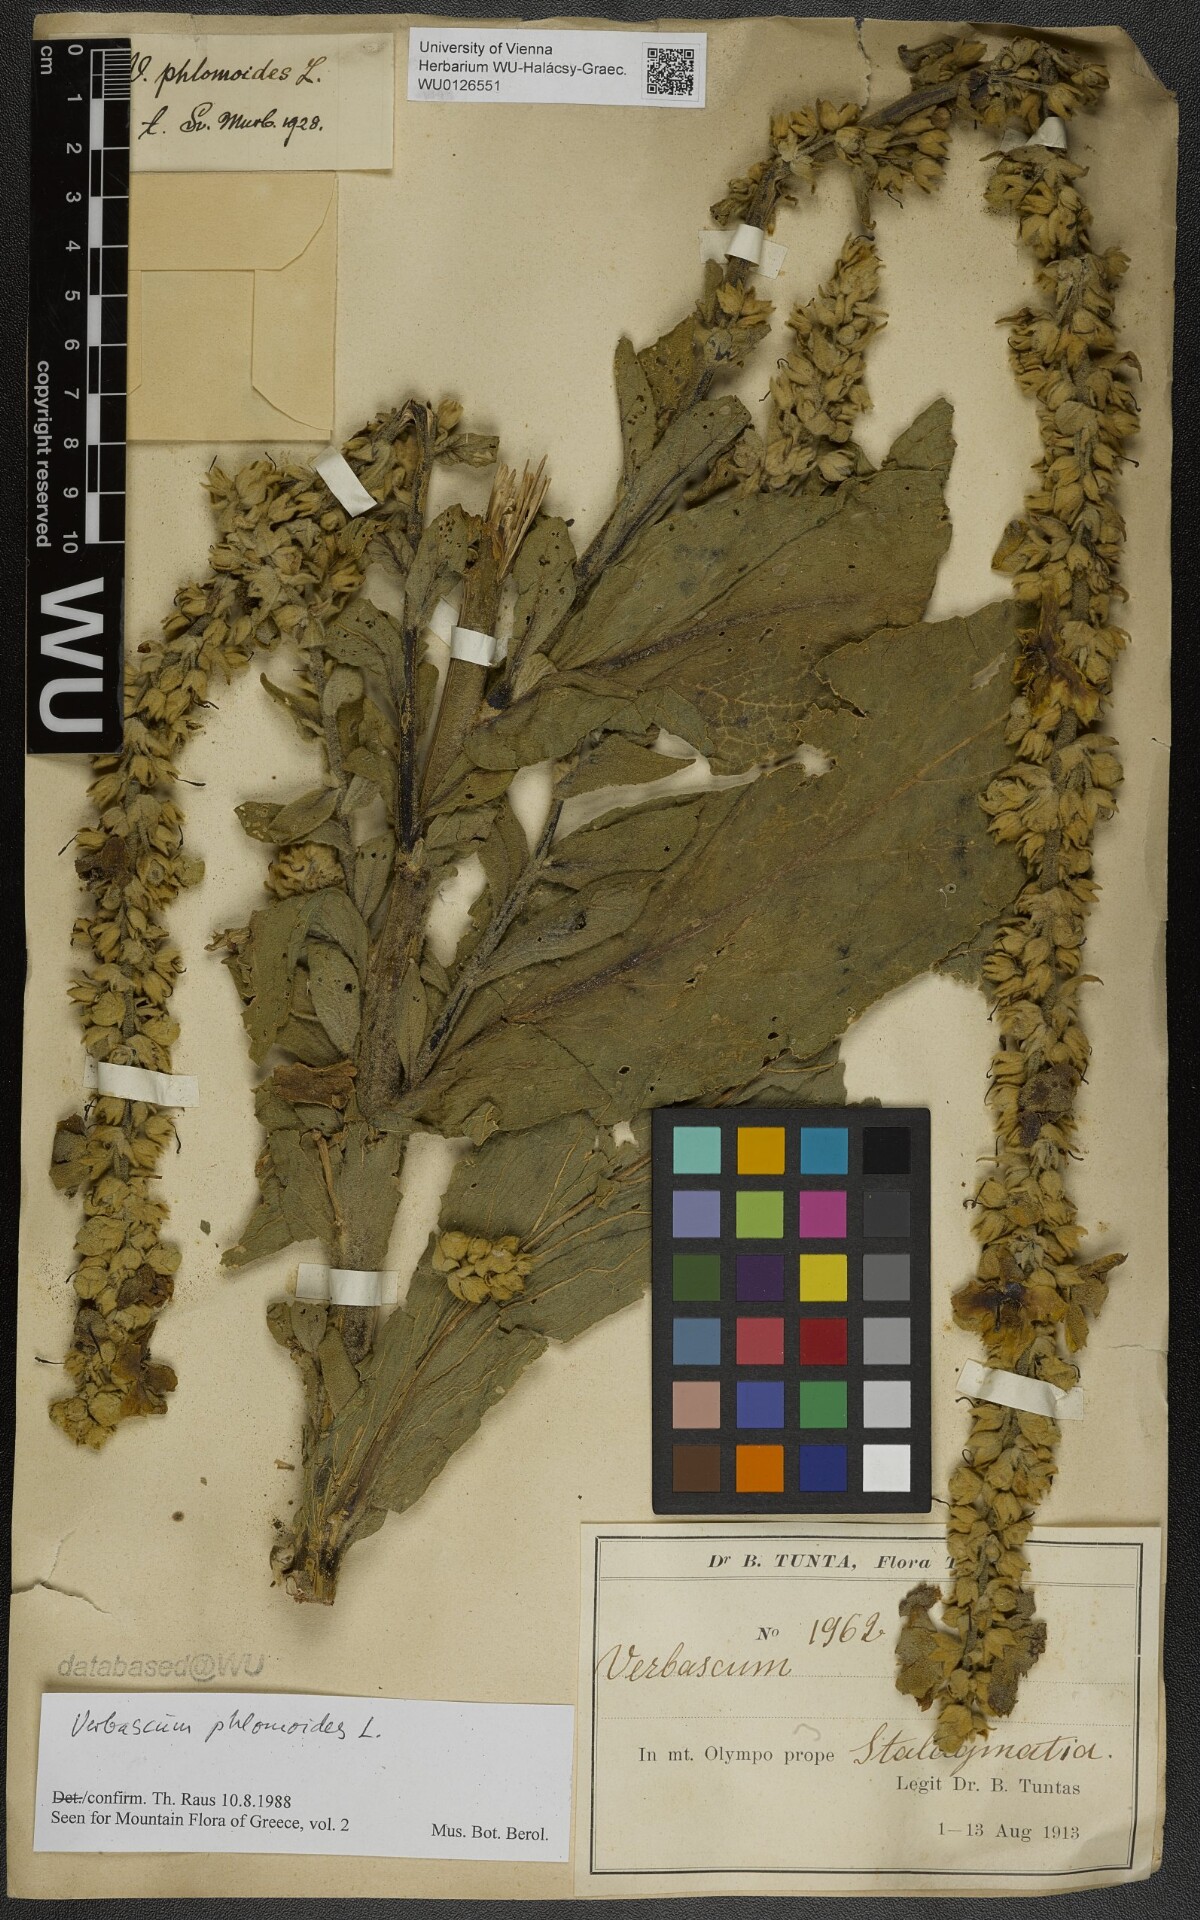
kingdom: Plantae
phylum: Tracheophyta
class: Magnoliopsida
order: Lamiales
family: Scrophulariaceae
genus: Verbascum
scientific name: Verbascum phlomoides
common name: Orange mullein
